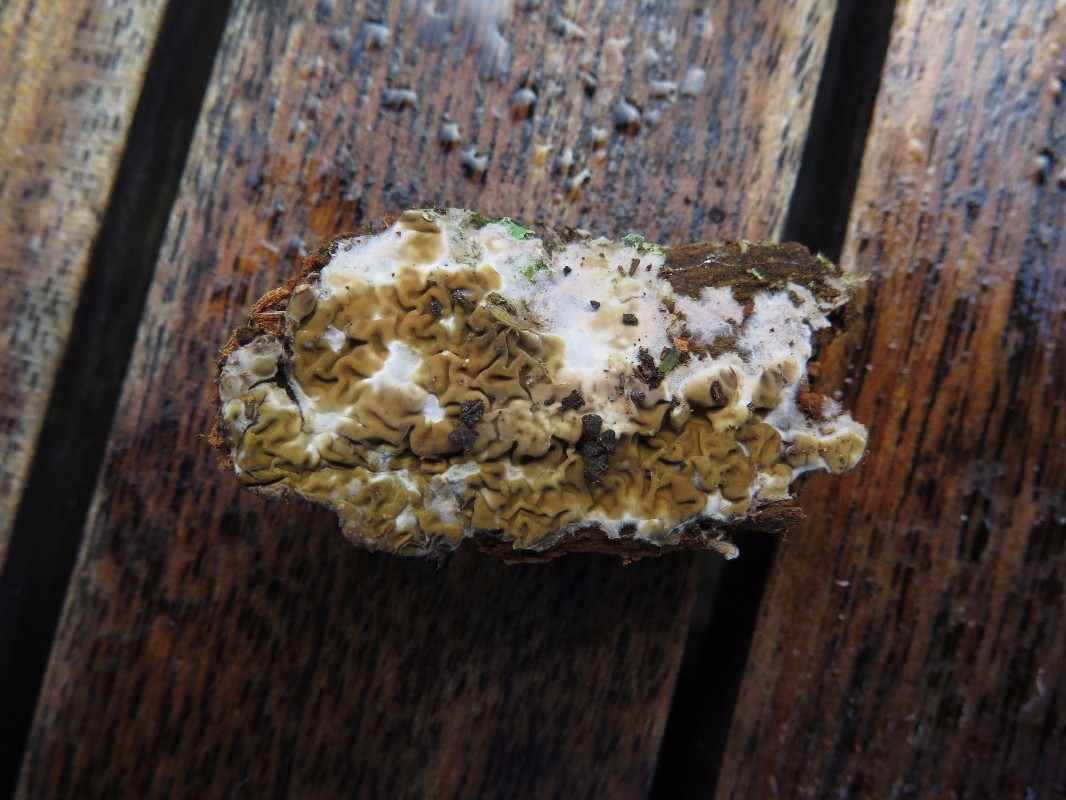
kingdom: Fungi
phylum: Basidiomycota
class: Agaricomycetes
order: Boletales
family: Coniophoraceae
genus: Coniophora
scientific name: Coniophora puteana
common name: gul tømmersvamp
